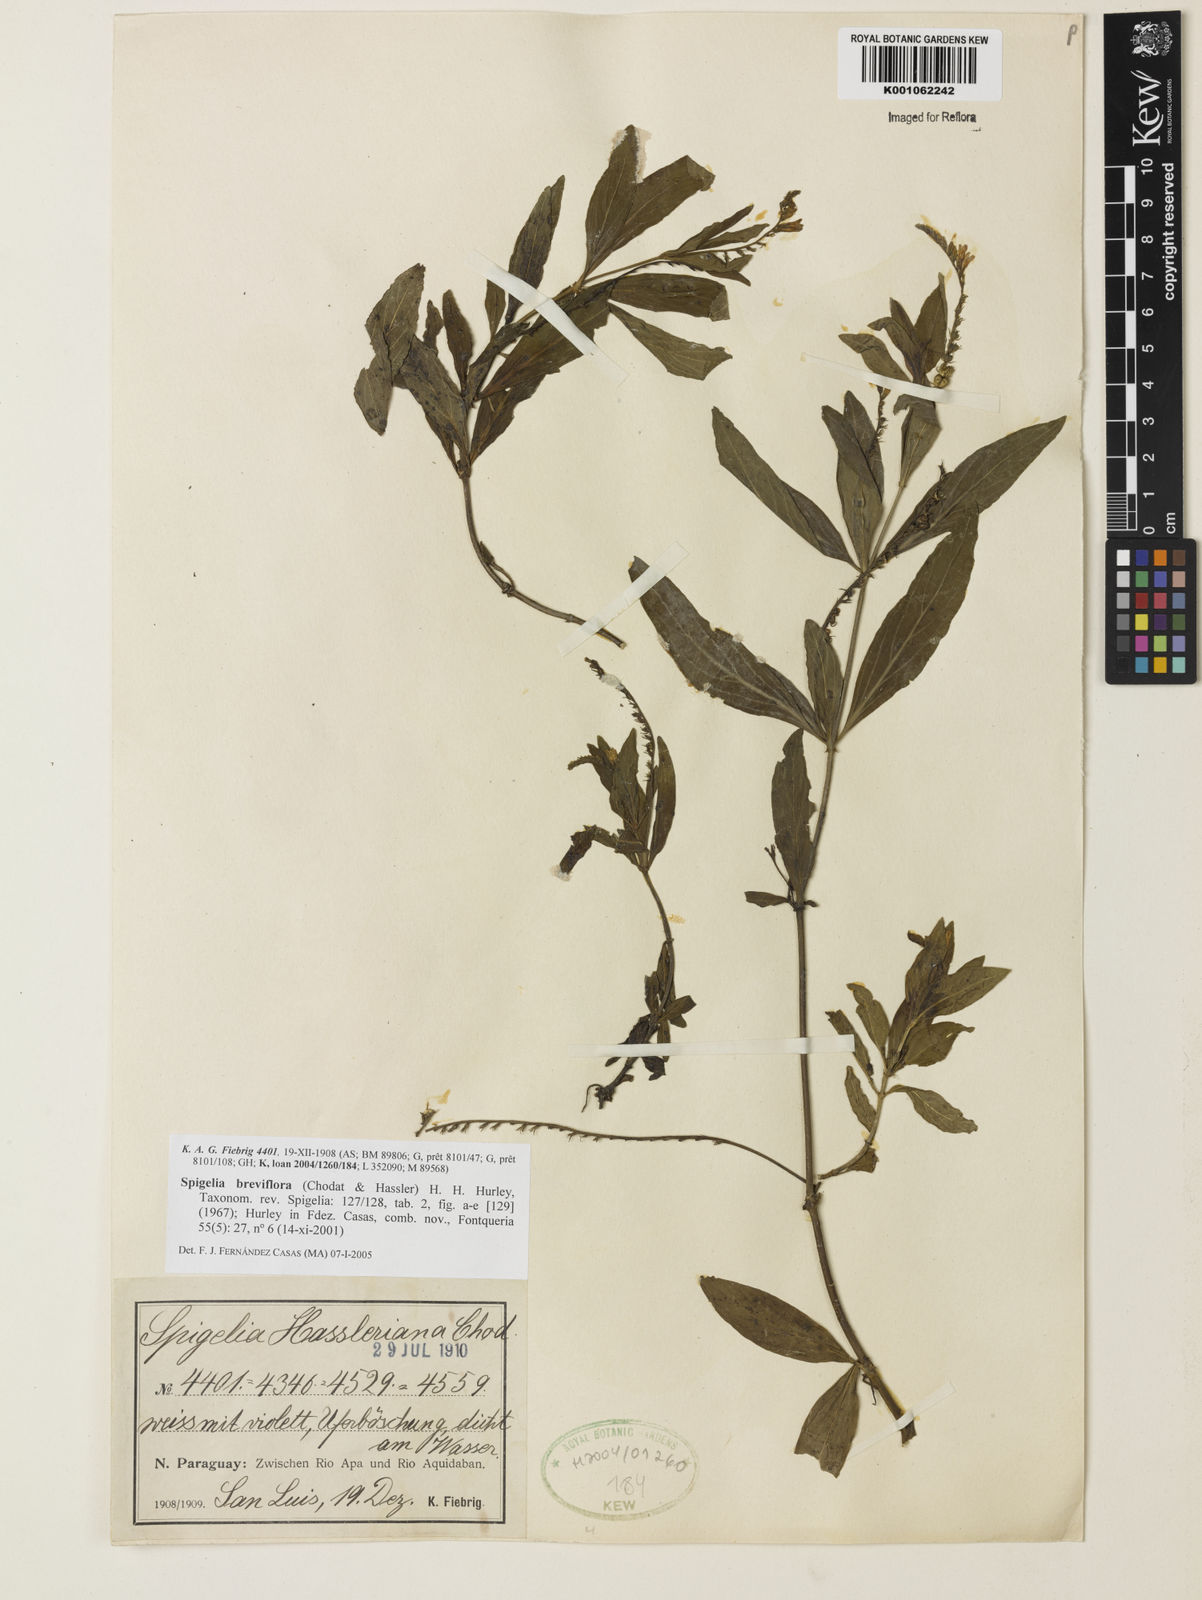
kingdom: Plantae
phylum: Tracheophyta
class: Magnoliopsida
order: Gentianales
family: Loganiaceae
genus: Spigelia
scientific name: Spigelia breviflora
